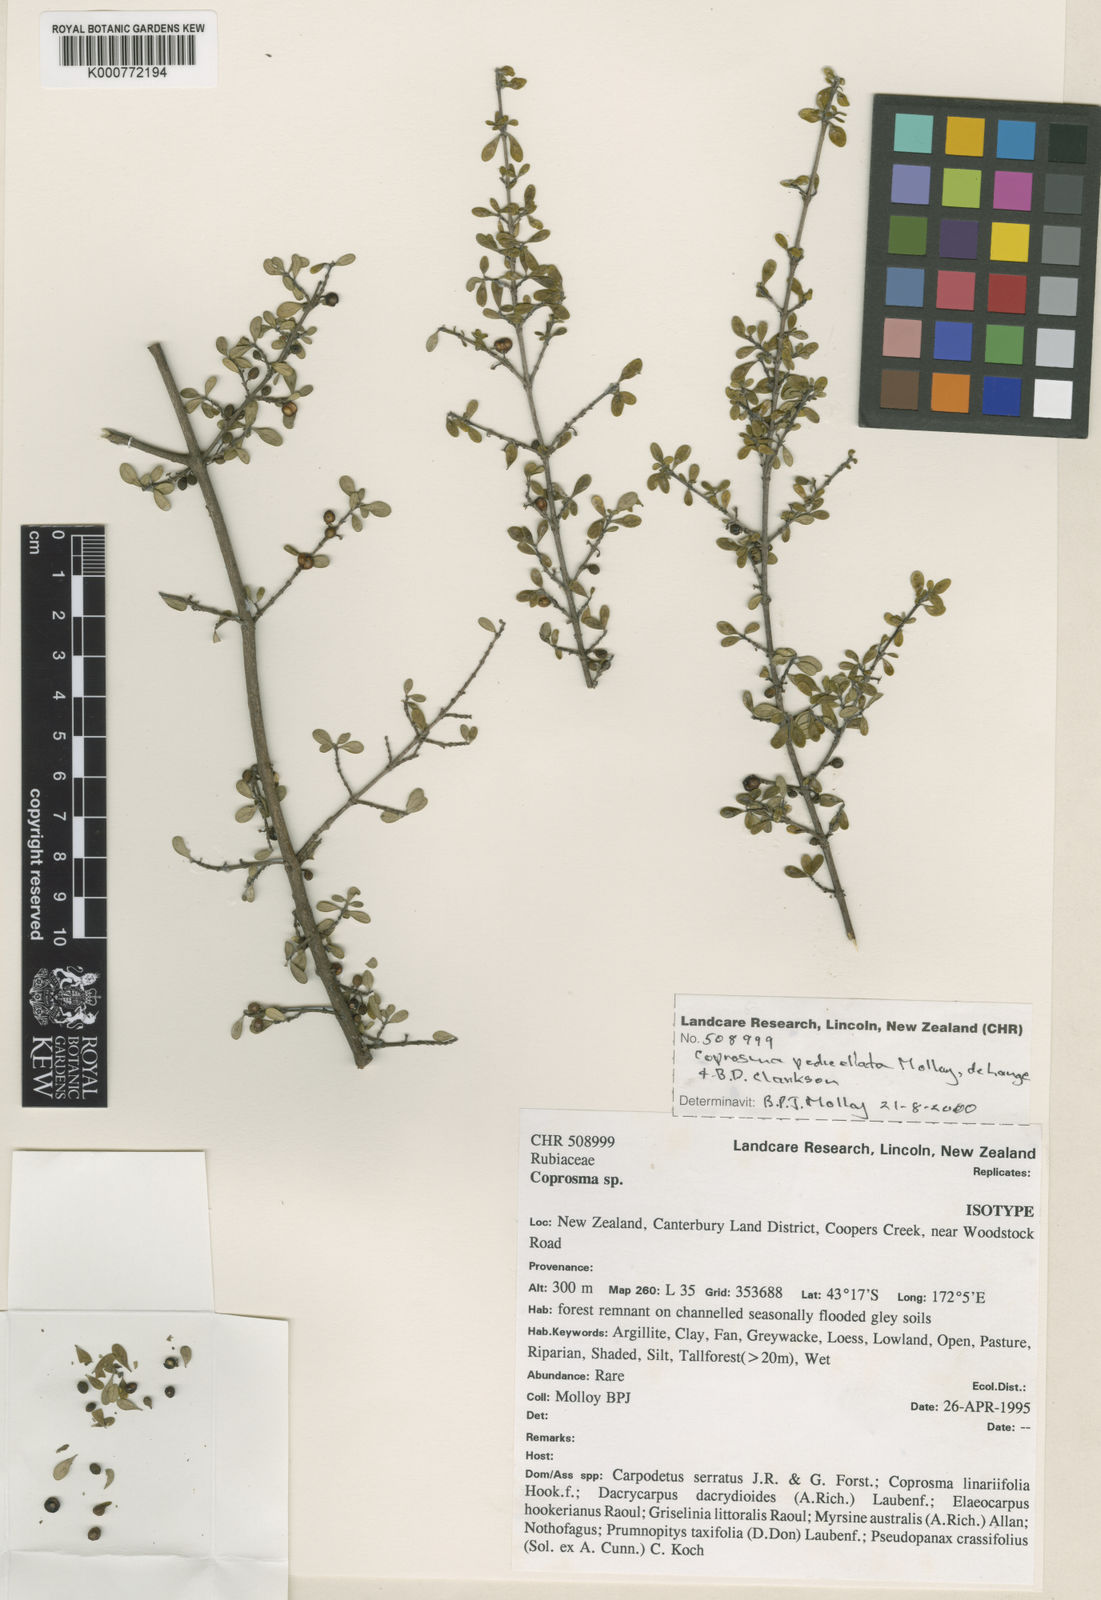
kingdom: Plantae
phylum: Tracheophyta
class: Magnoliopsida
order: Gentianales
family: Rubiaceae
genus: Coprosma
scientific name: Coprosma
